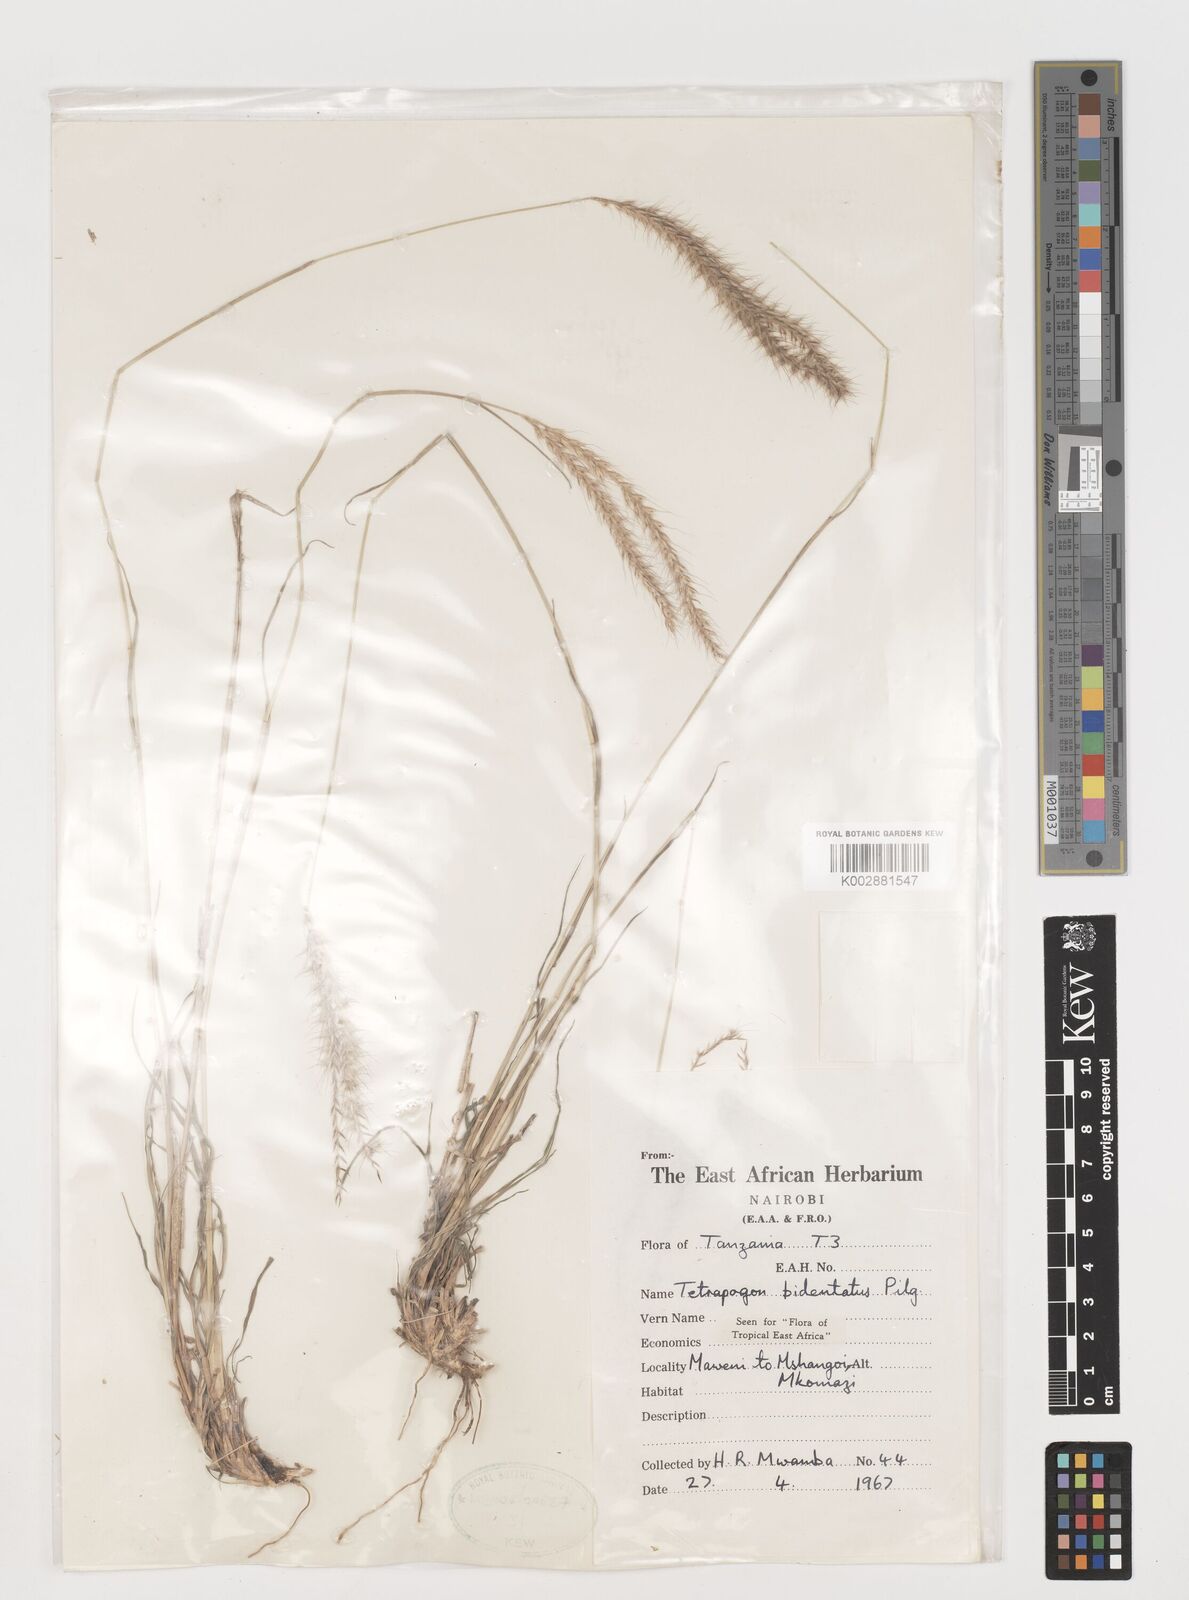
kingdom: Plantae
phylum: Tracheophyta
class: Liliopsida
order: Poales
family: Poaceae
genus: Tetrapogon
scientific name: Tetrapogon bidentatus
